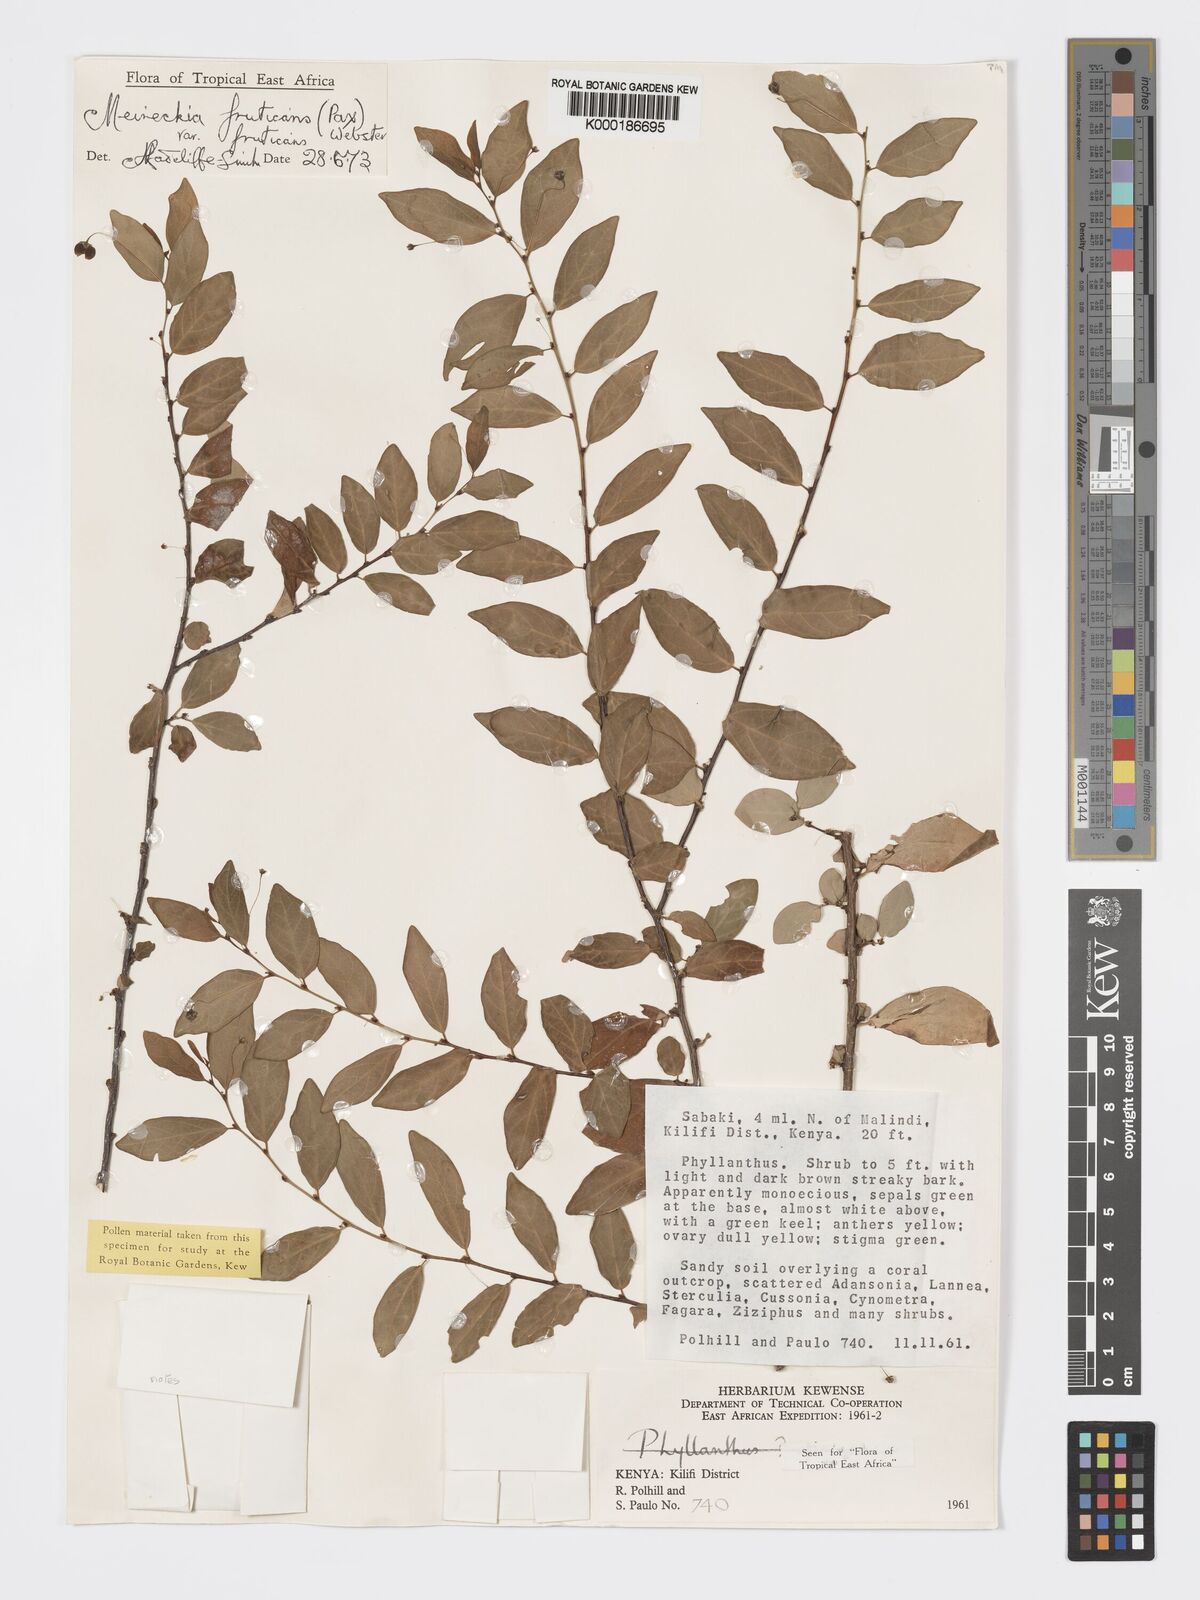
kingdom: Plantae
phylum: Tracheophyta
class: Magnoliopsida
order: Malpighiales
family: Phyllanthaceae
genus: Meineckia
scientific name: Meineckia fruticans
